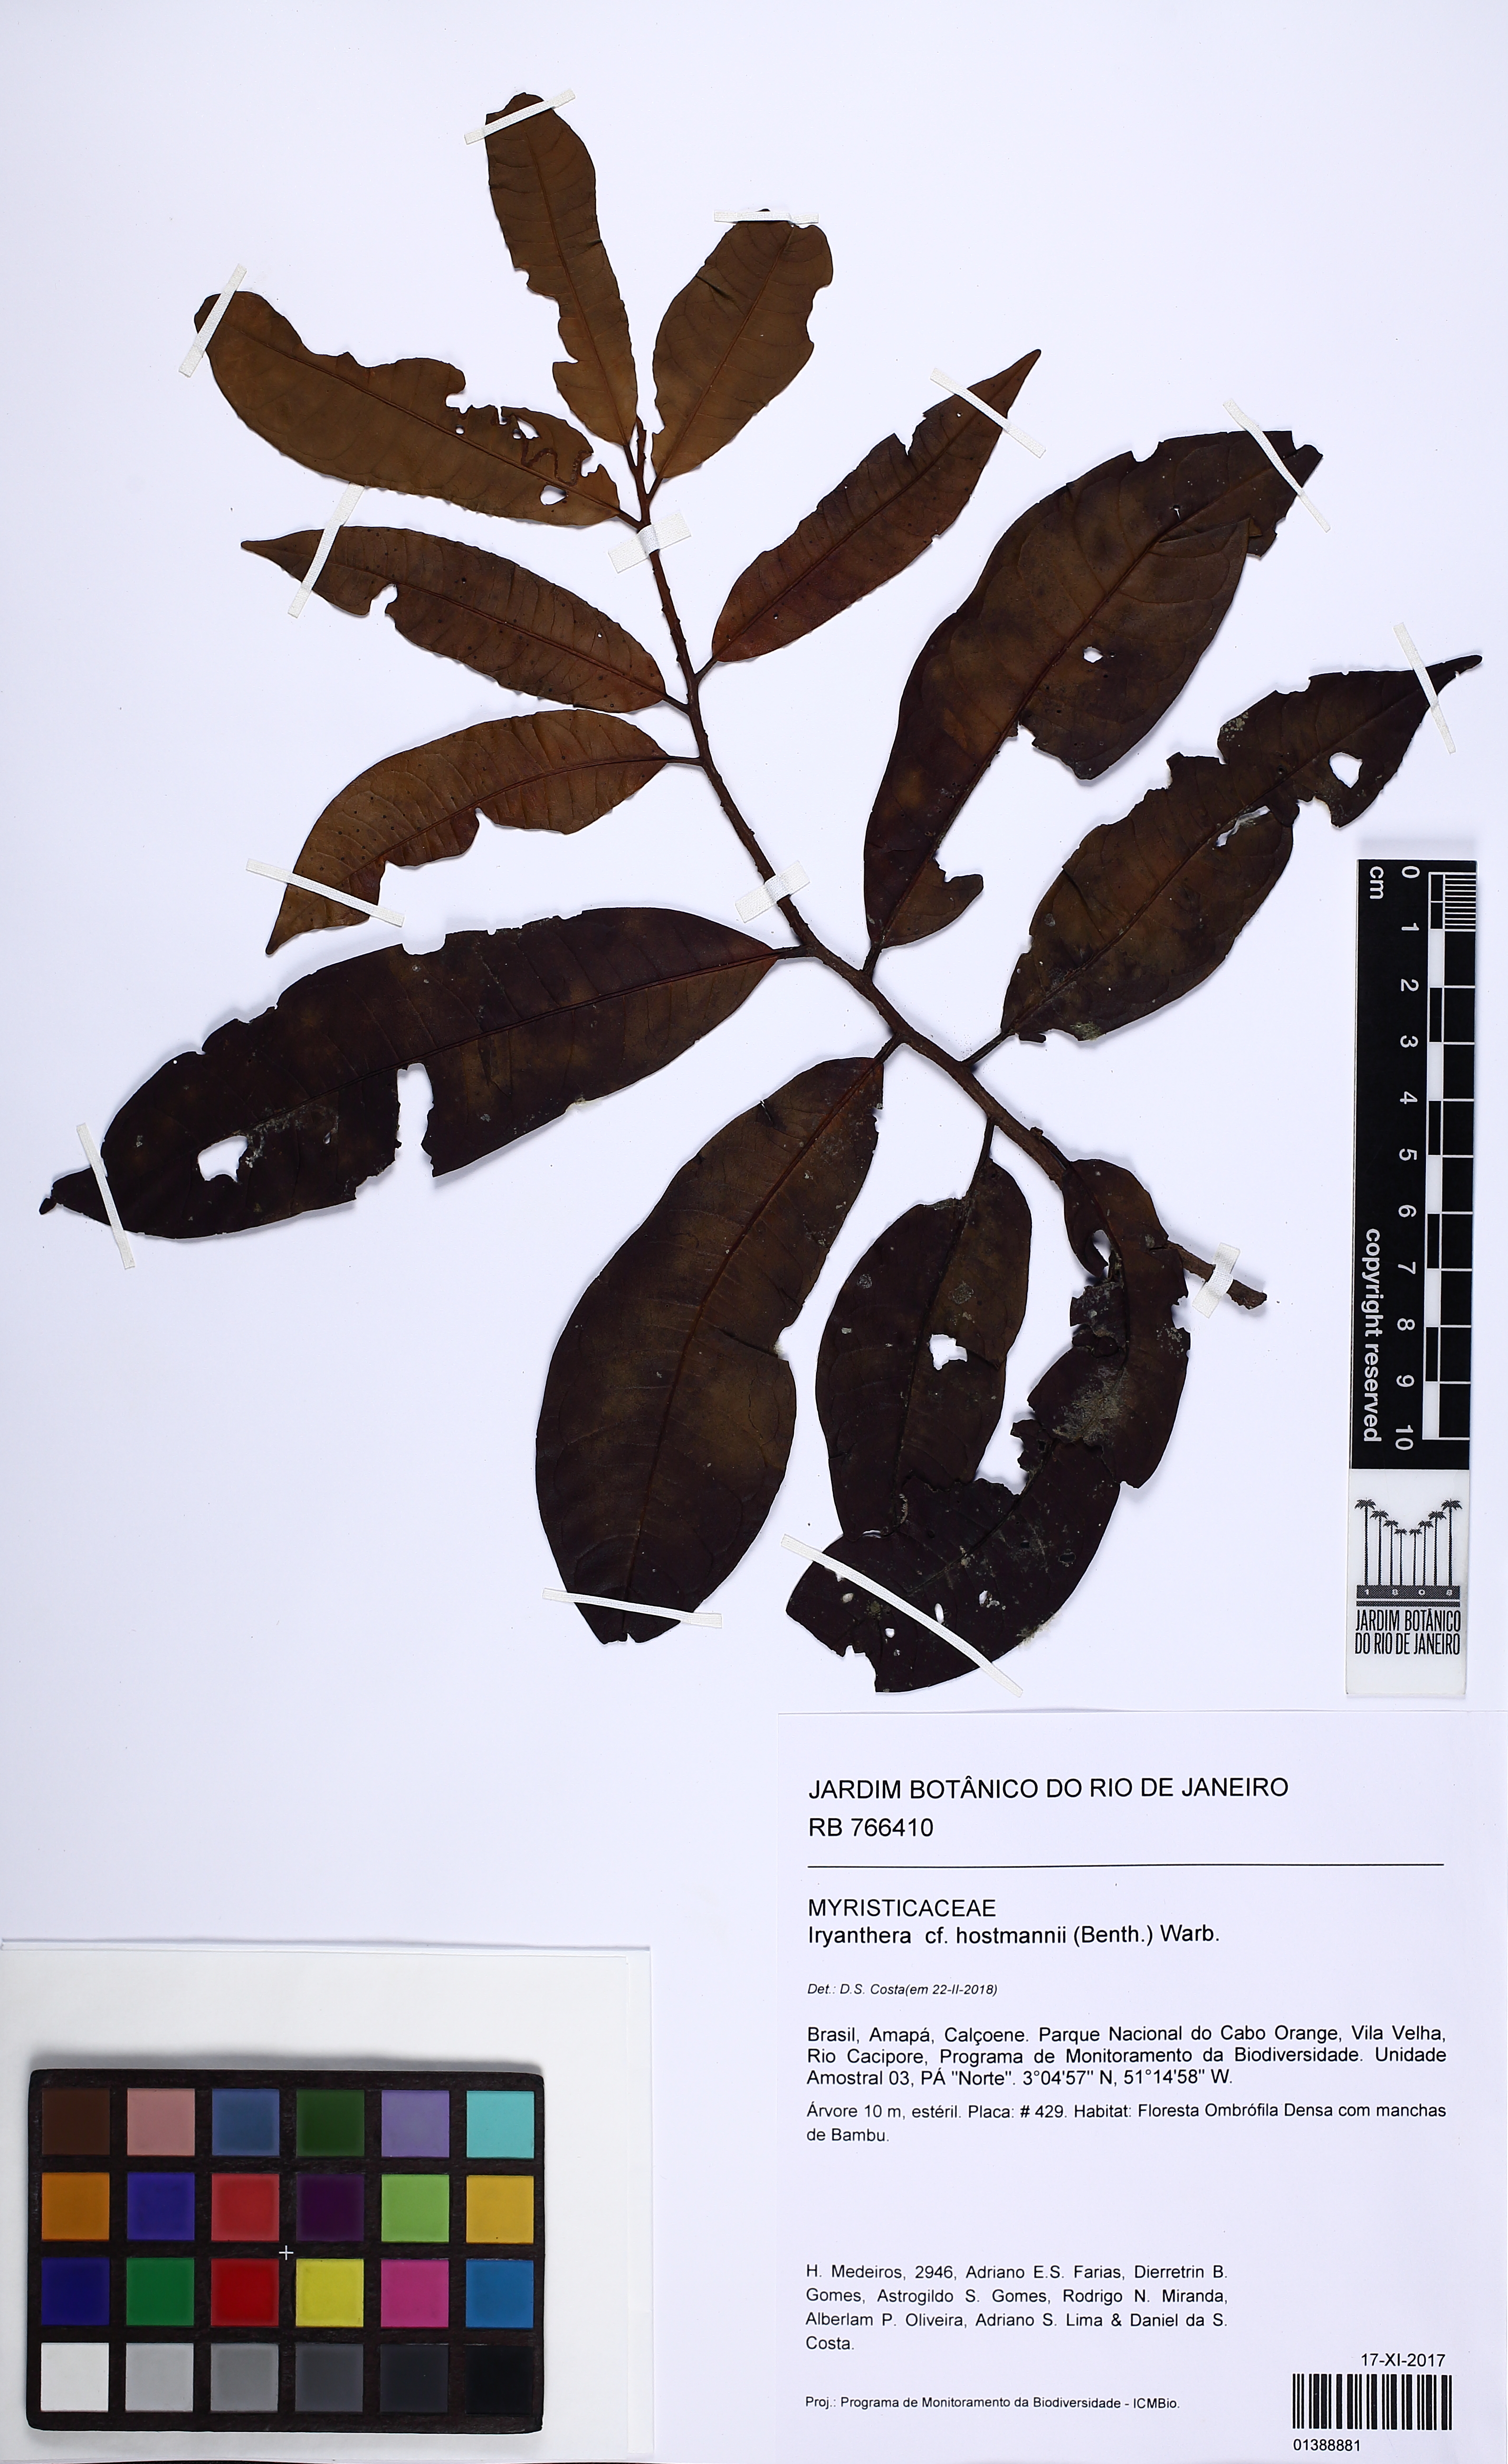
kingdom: Plantae
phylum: Tracheophyta
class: Magnoliopsida
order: Magnoliales
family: Myristicaceae
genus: Iryanthera
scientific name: Iryanthera hostmannii
